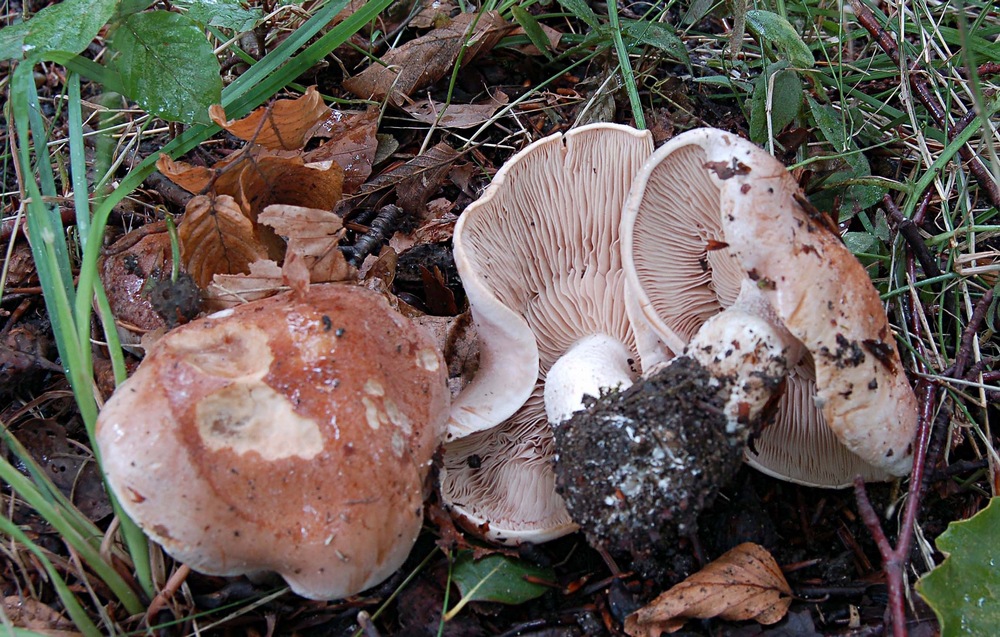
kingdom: Fungi
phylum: Basidiomycota
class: Agaricomycetes
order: Agaricales
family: Hymenogastraceae
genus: Hebeloma
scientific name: Hebeloma sinapizans
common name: ræddike-tåreblad
